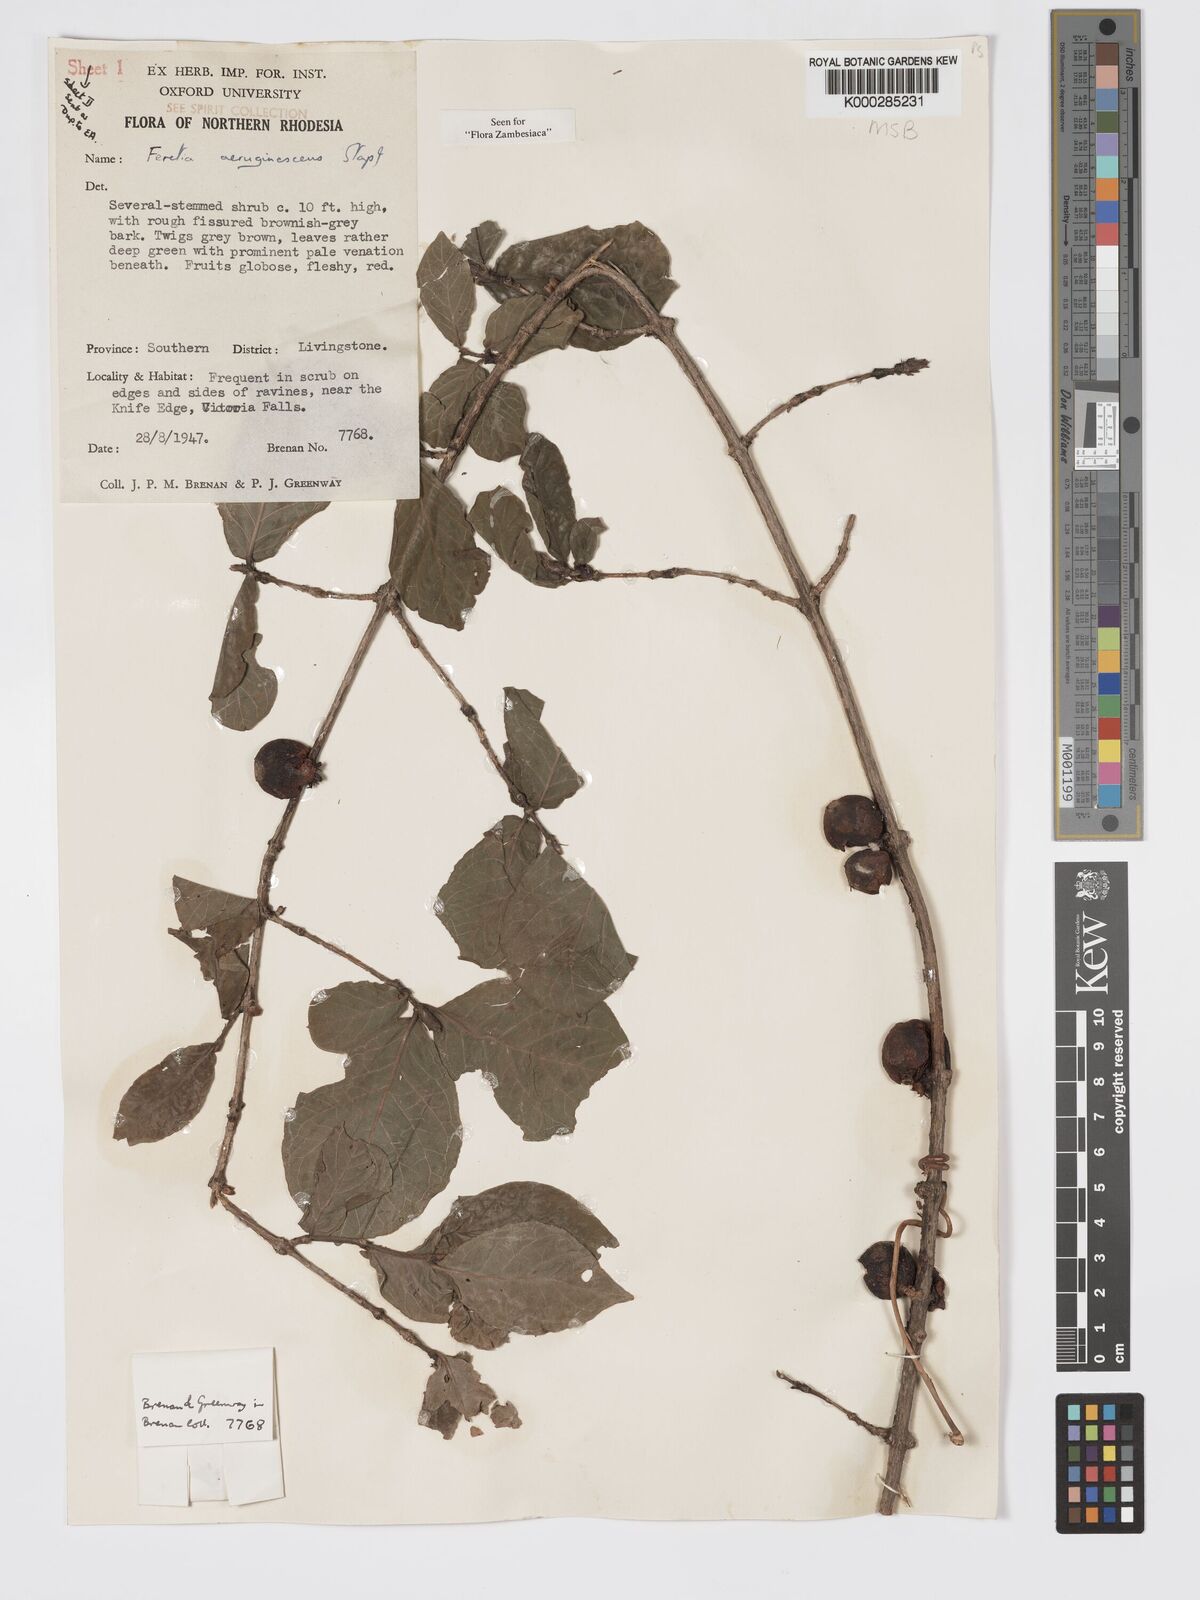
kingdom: Plantae
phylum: Tracheophyta
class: Magnoliopsida
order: Gentianales
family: Rubiaceae
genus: Feretia
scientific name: Feretia aeruginescens
